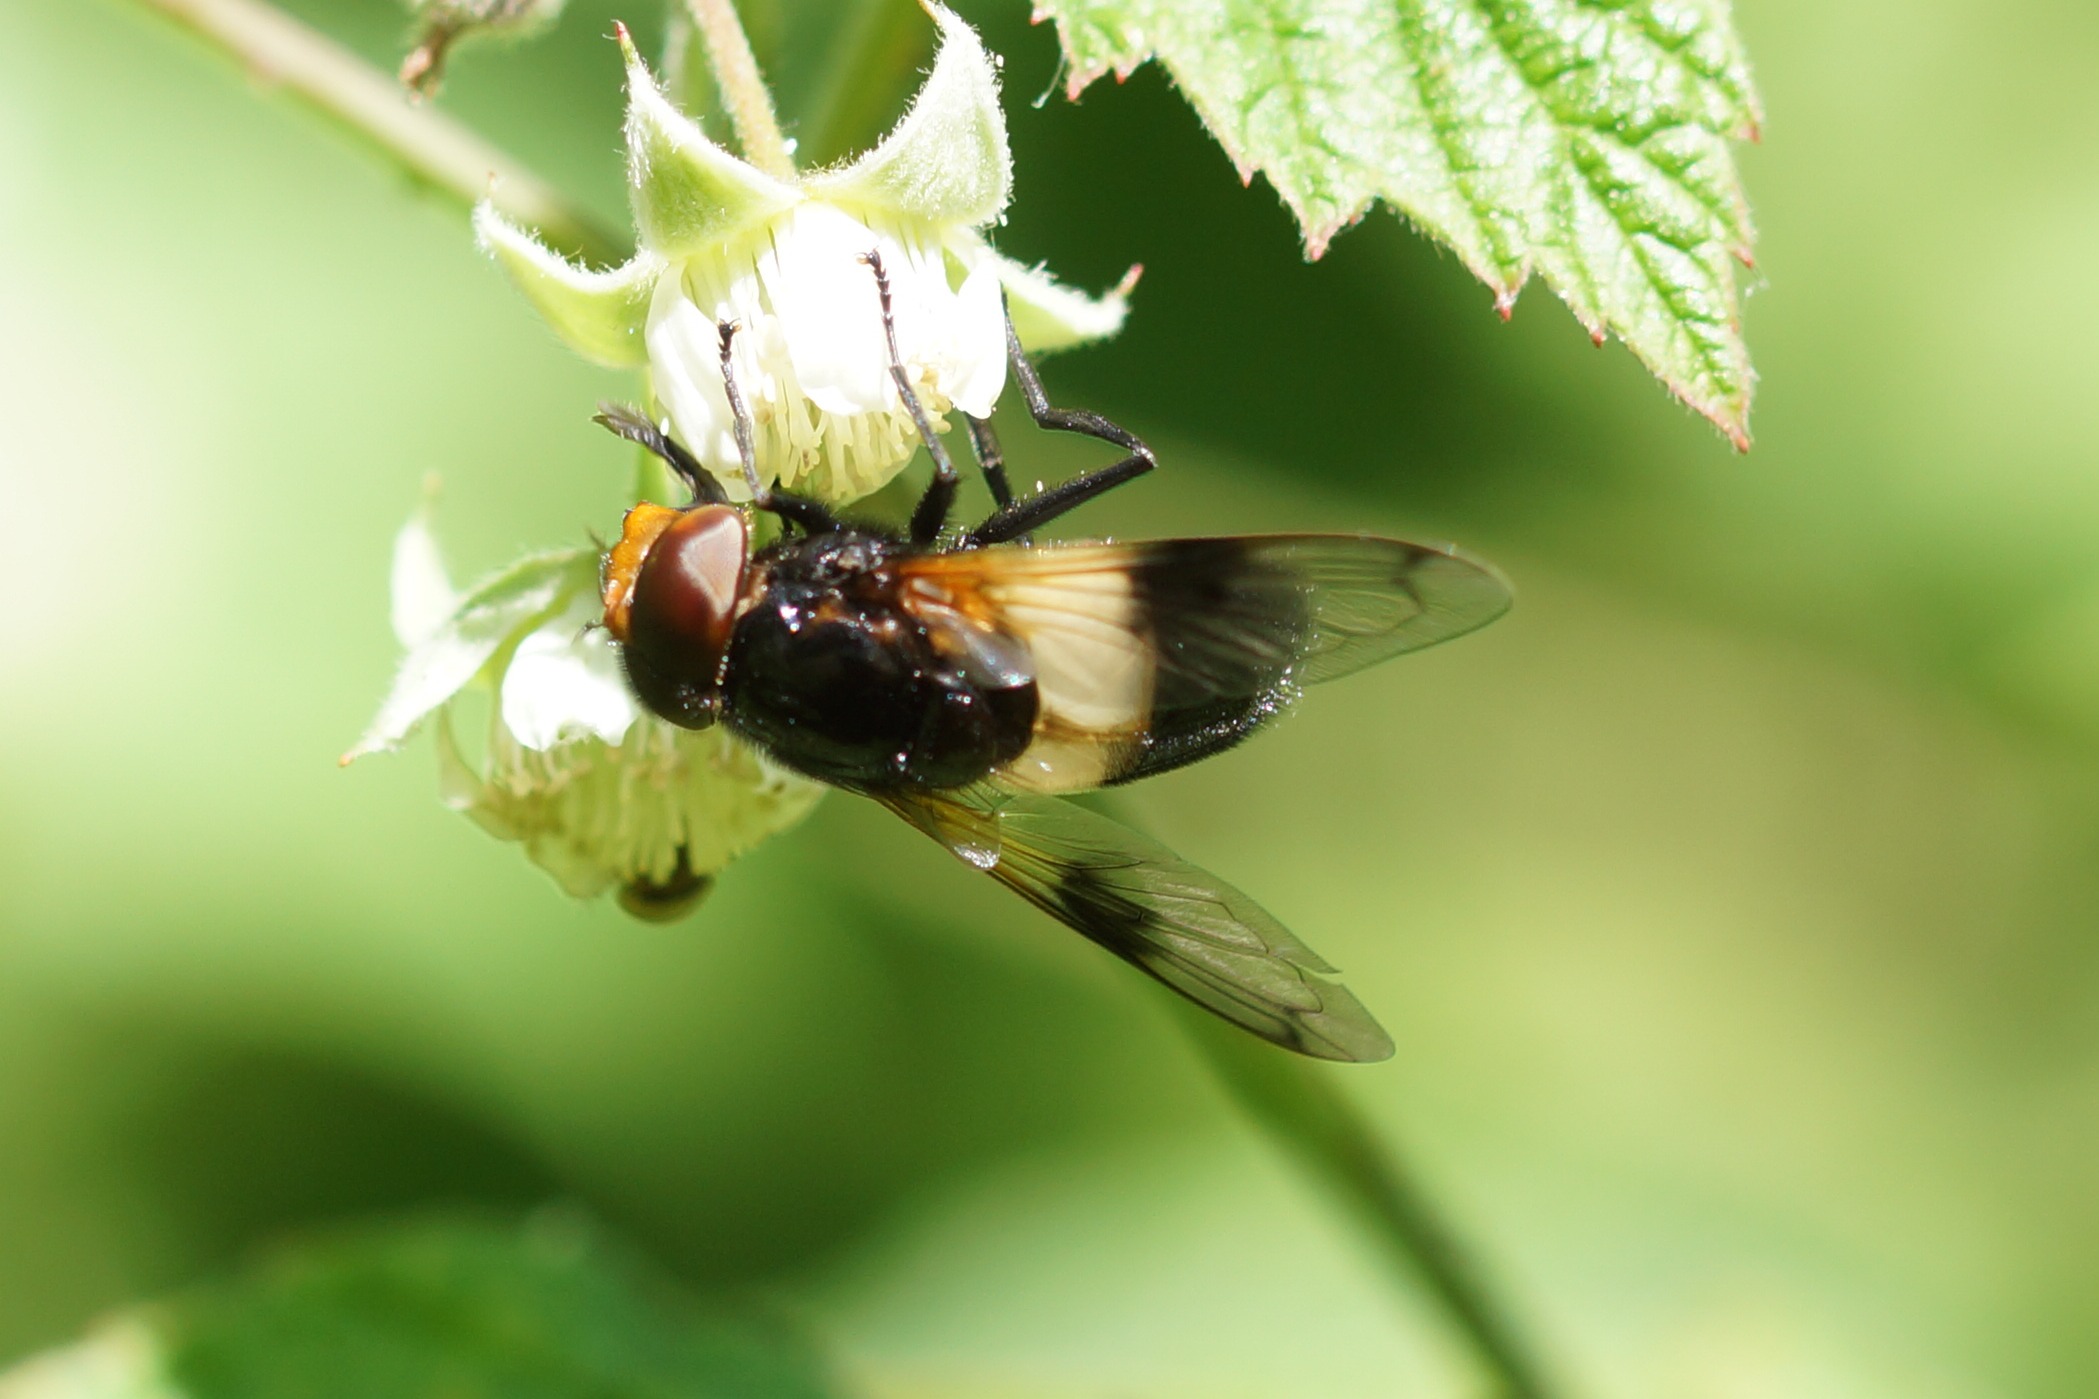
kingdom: Animalia
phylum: Arthropoda
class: Insecta
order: Diptera
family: Syrphidae
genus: Volucella
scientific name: Volucella pellucens
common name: Hvidbåndet humlesvirreflue
